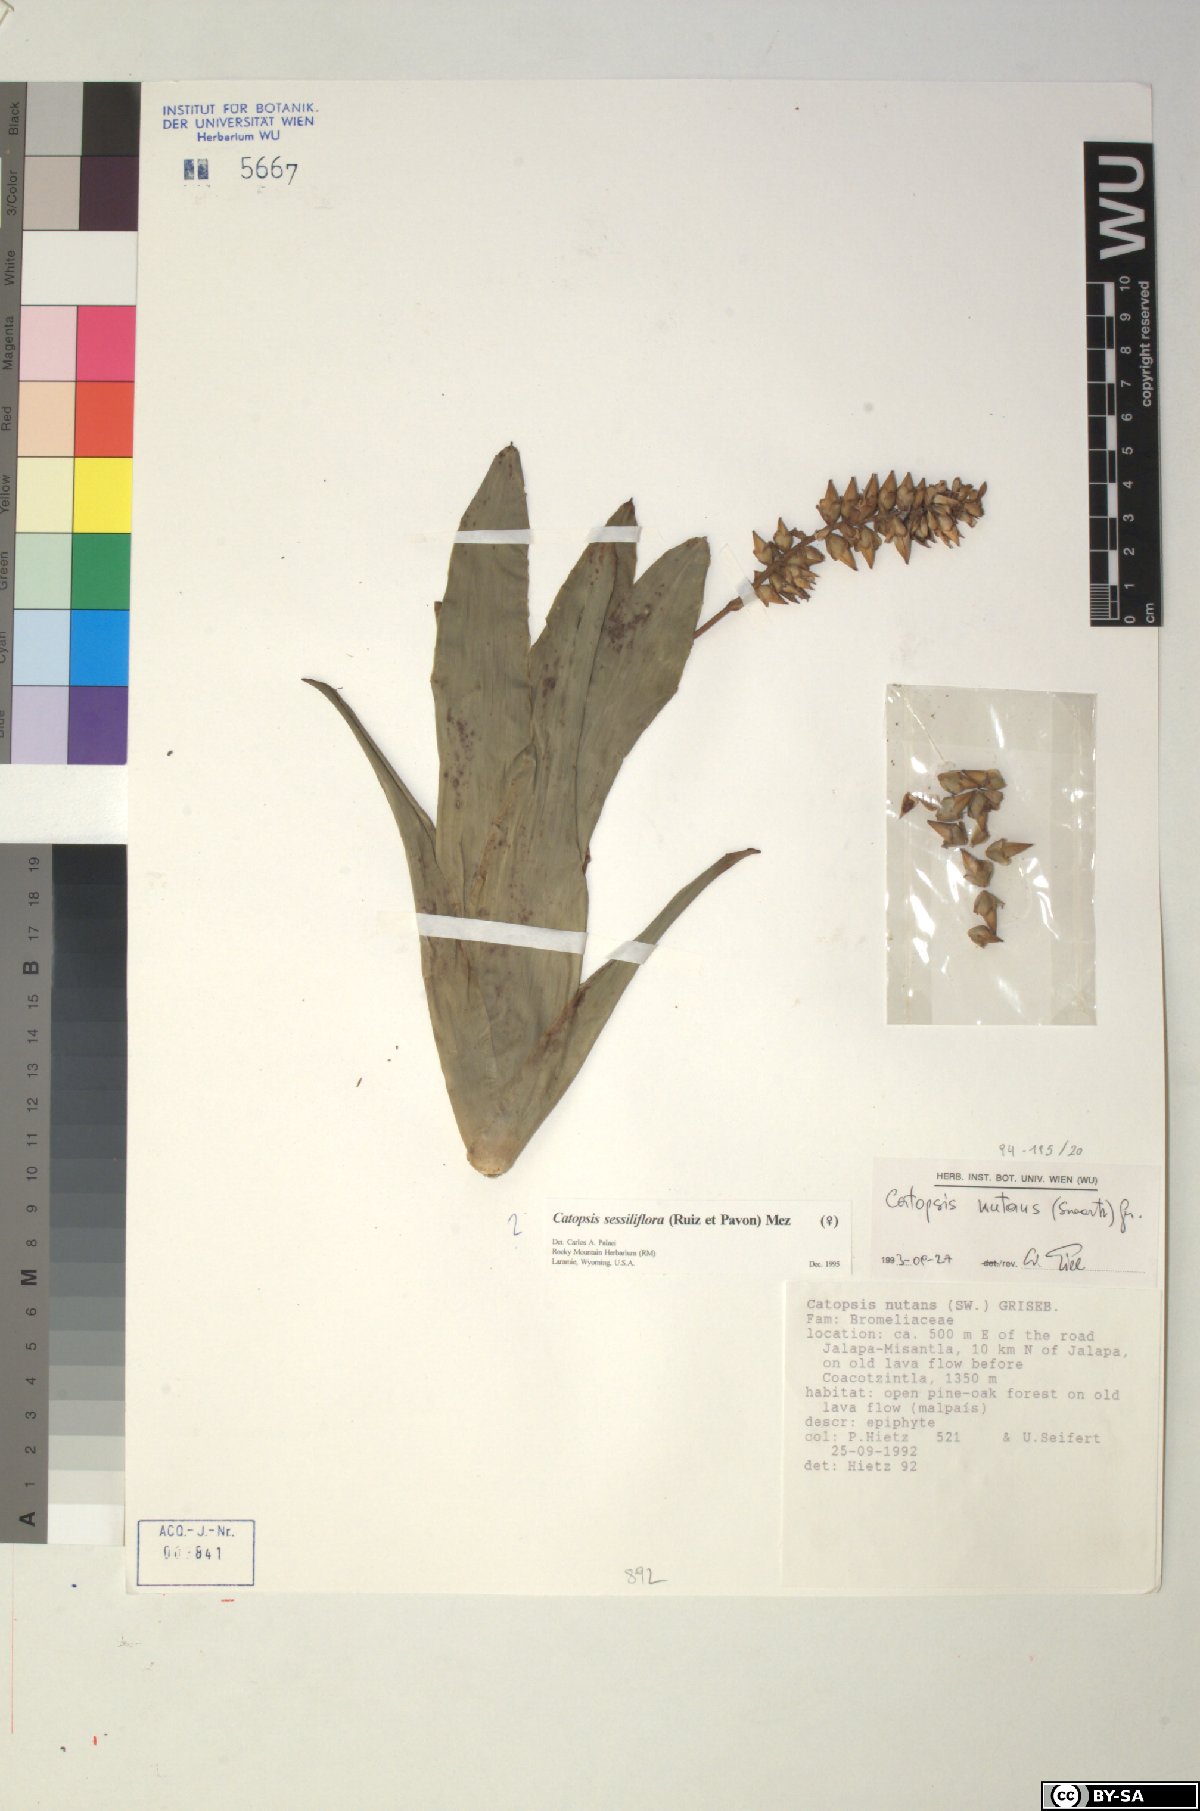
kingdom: Plantae
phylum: Tracheophyta
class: Liliopsida
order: Poales
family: Bromeliaceae
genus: Catopsis
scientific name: Catopsis sessiliflora
